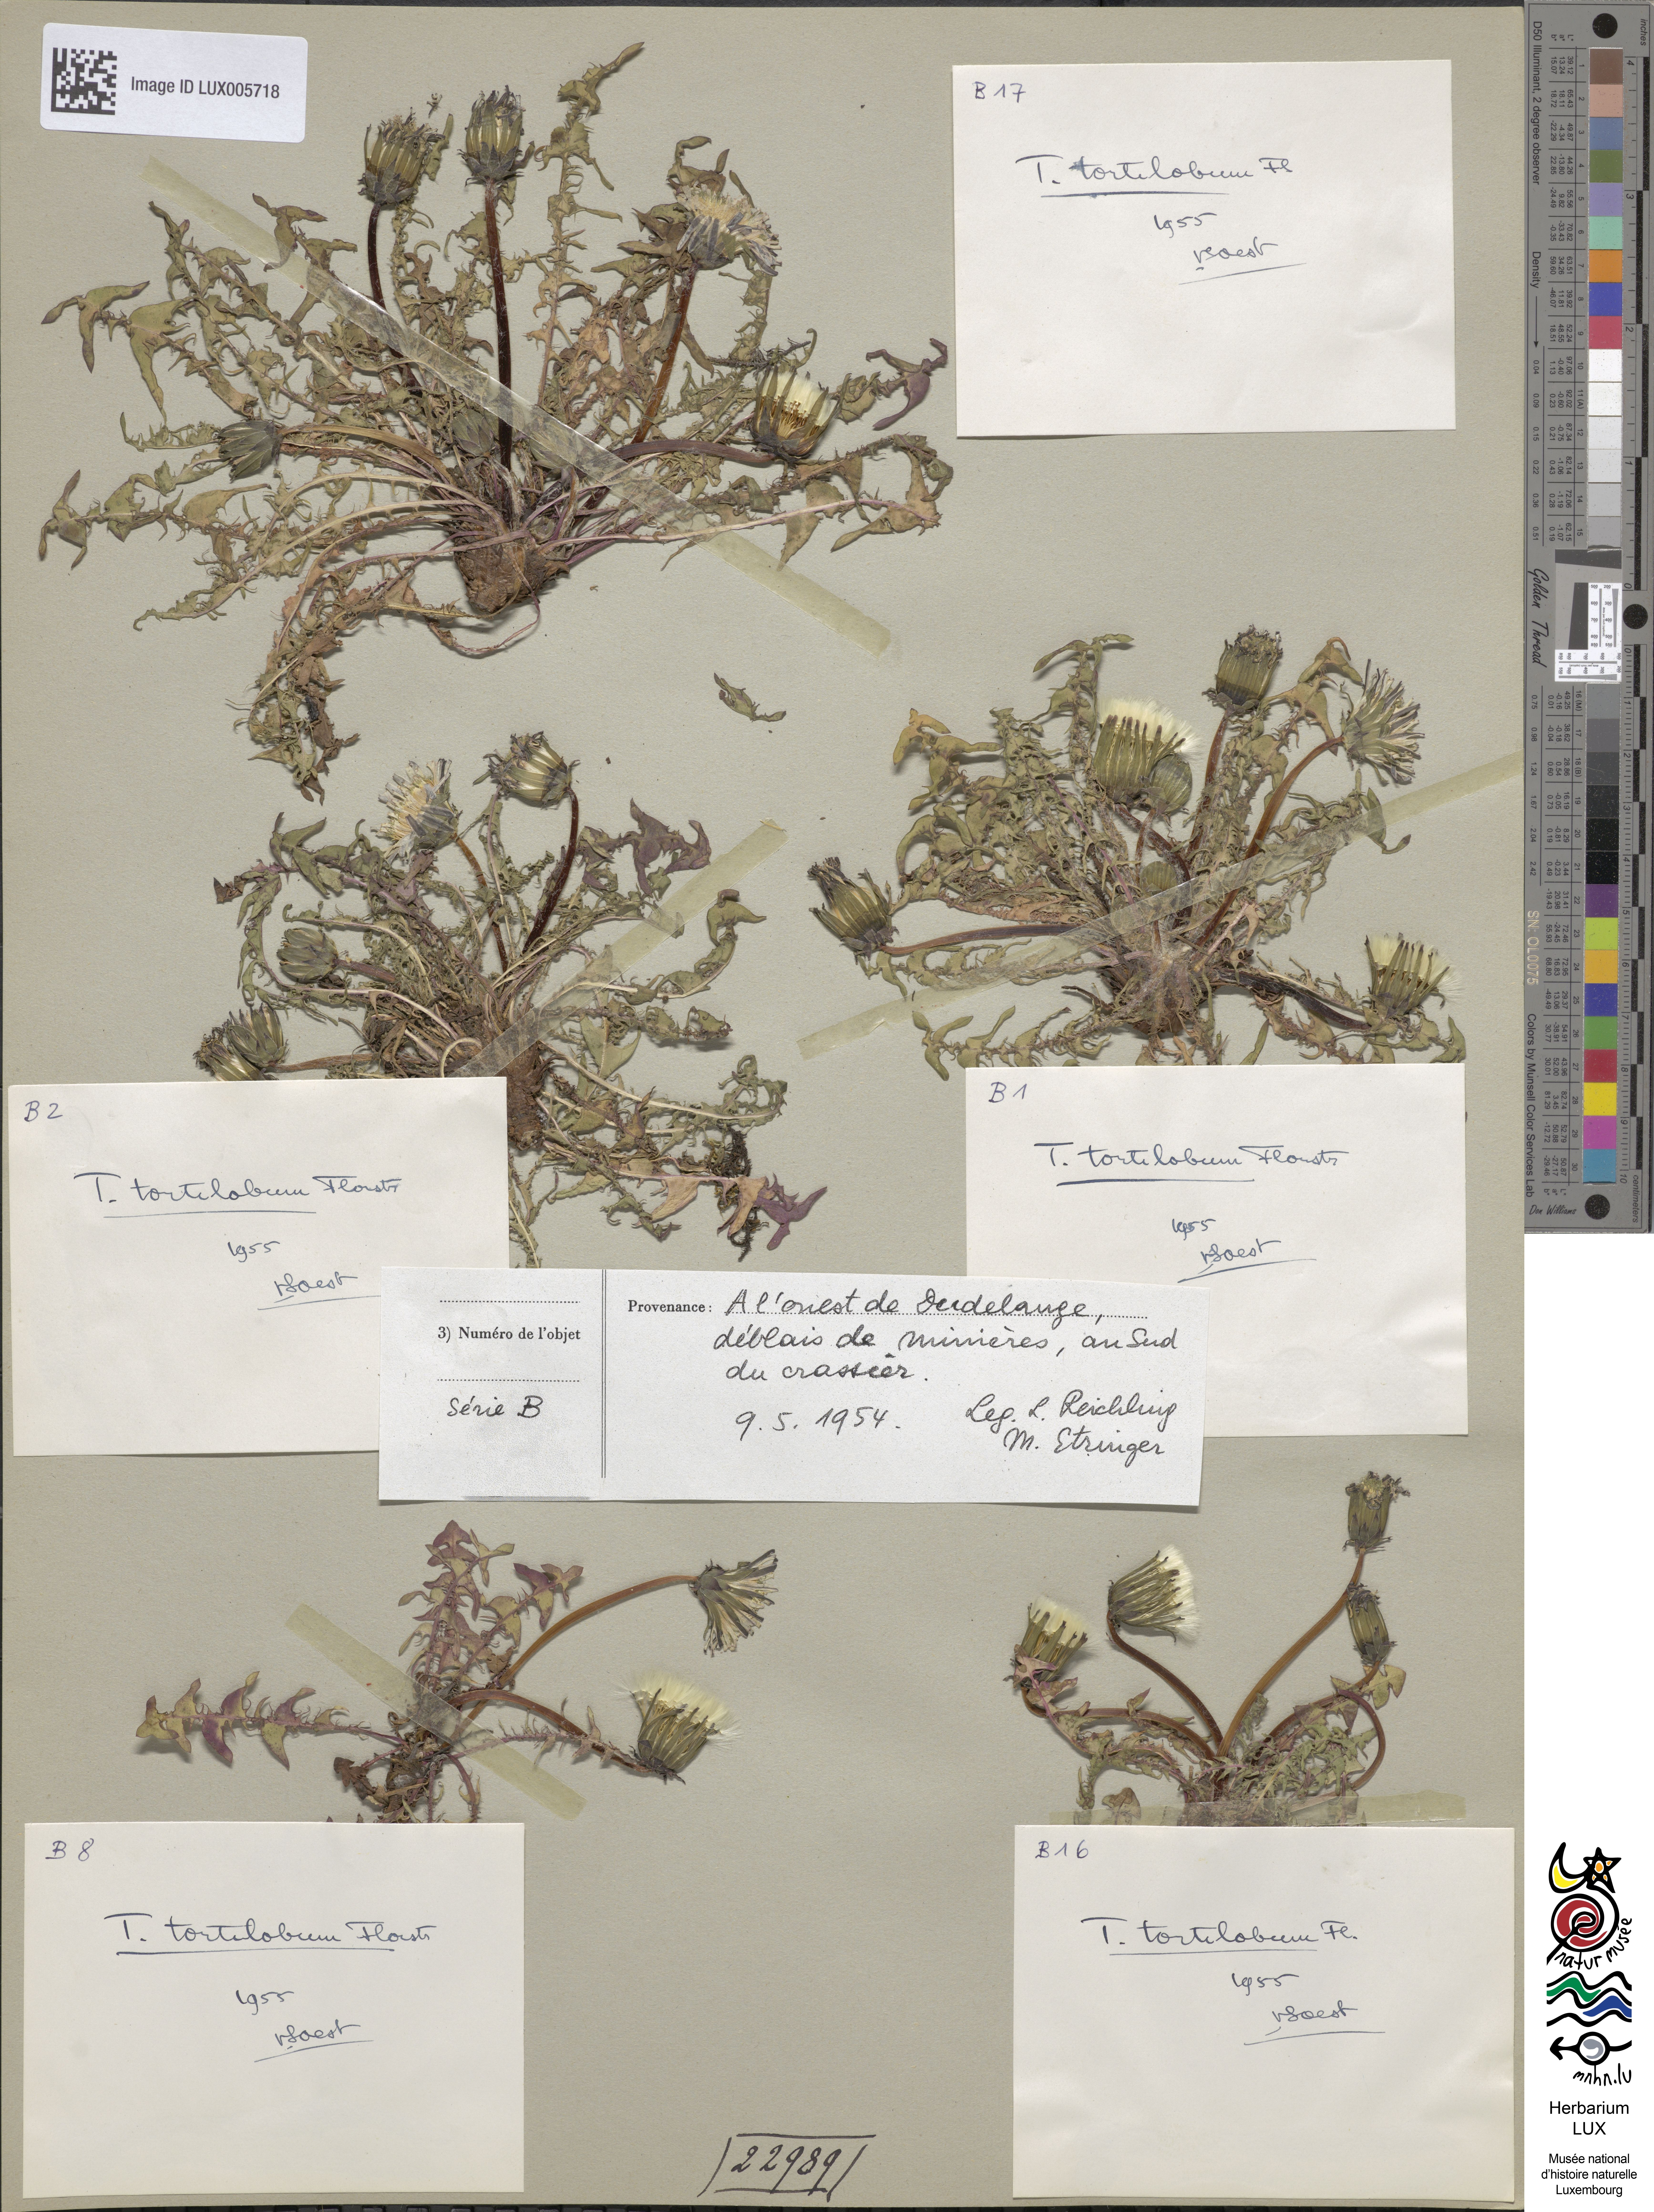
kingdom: Plantae
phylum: Tracheophyta
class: Magnoliopsida
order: Asterales
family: Asteraceae
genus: Taraxacum
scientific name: Taraxacum tortilobum
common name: Twisted-lobed dandelion
